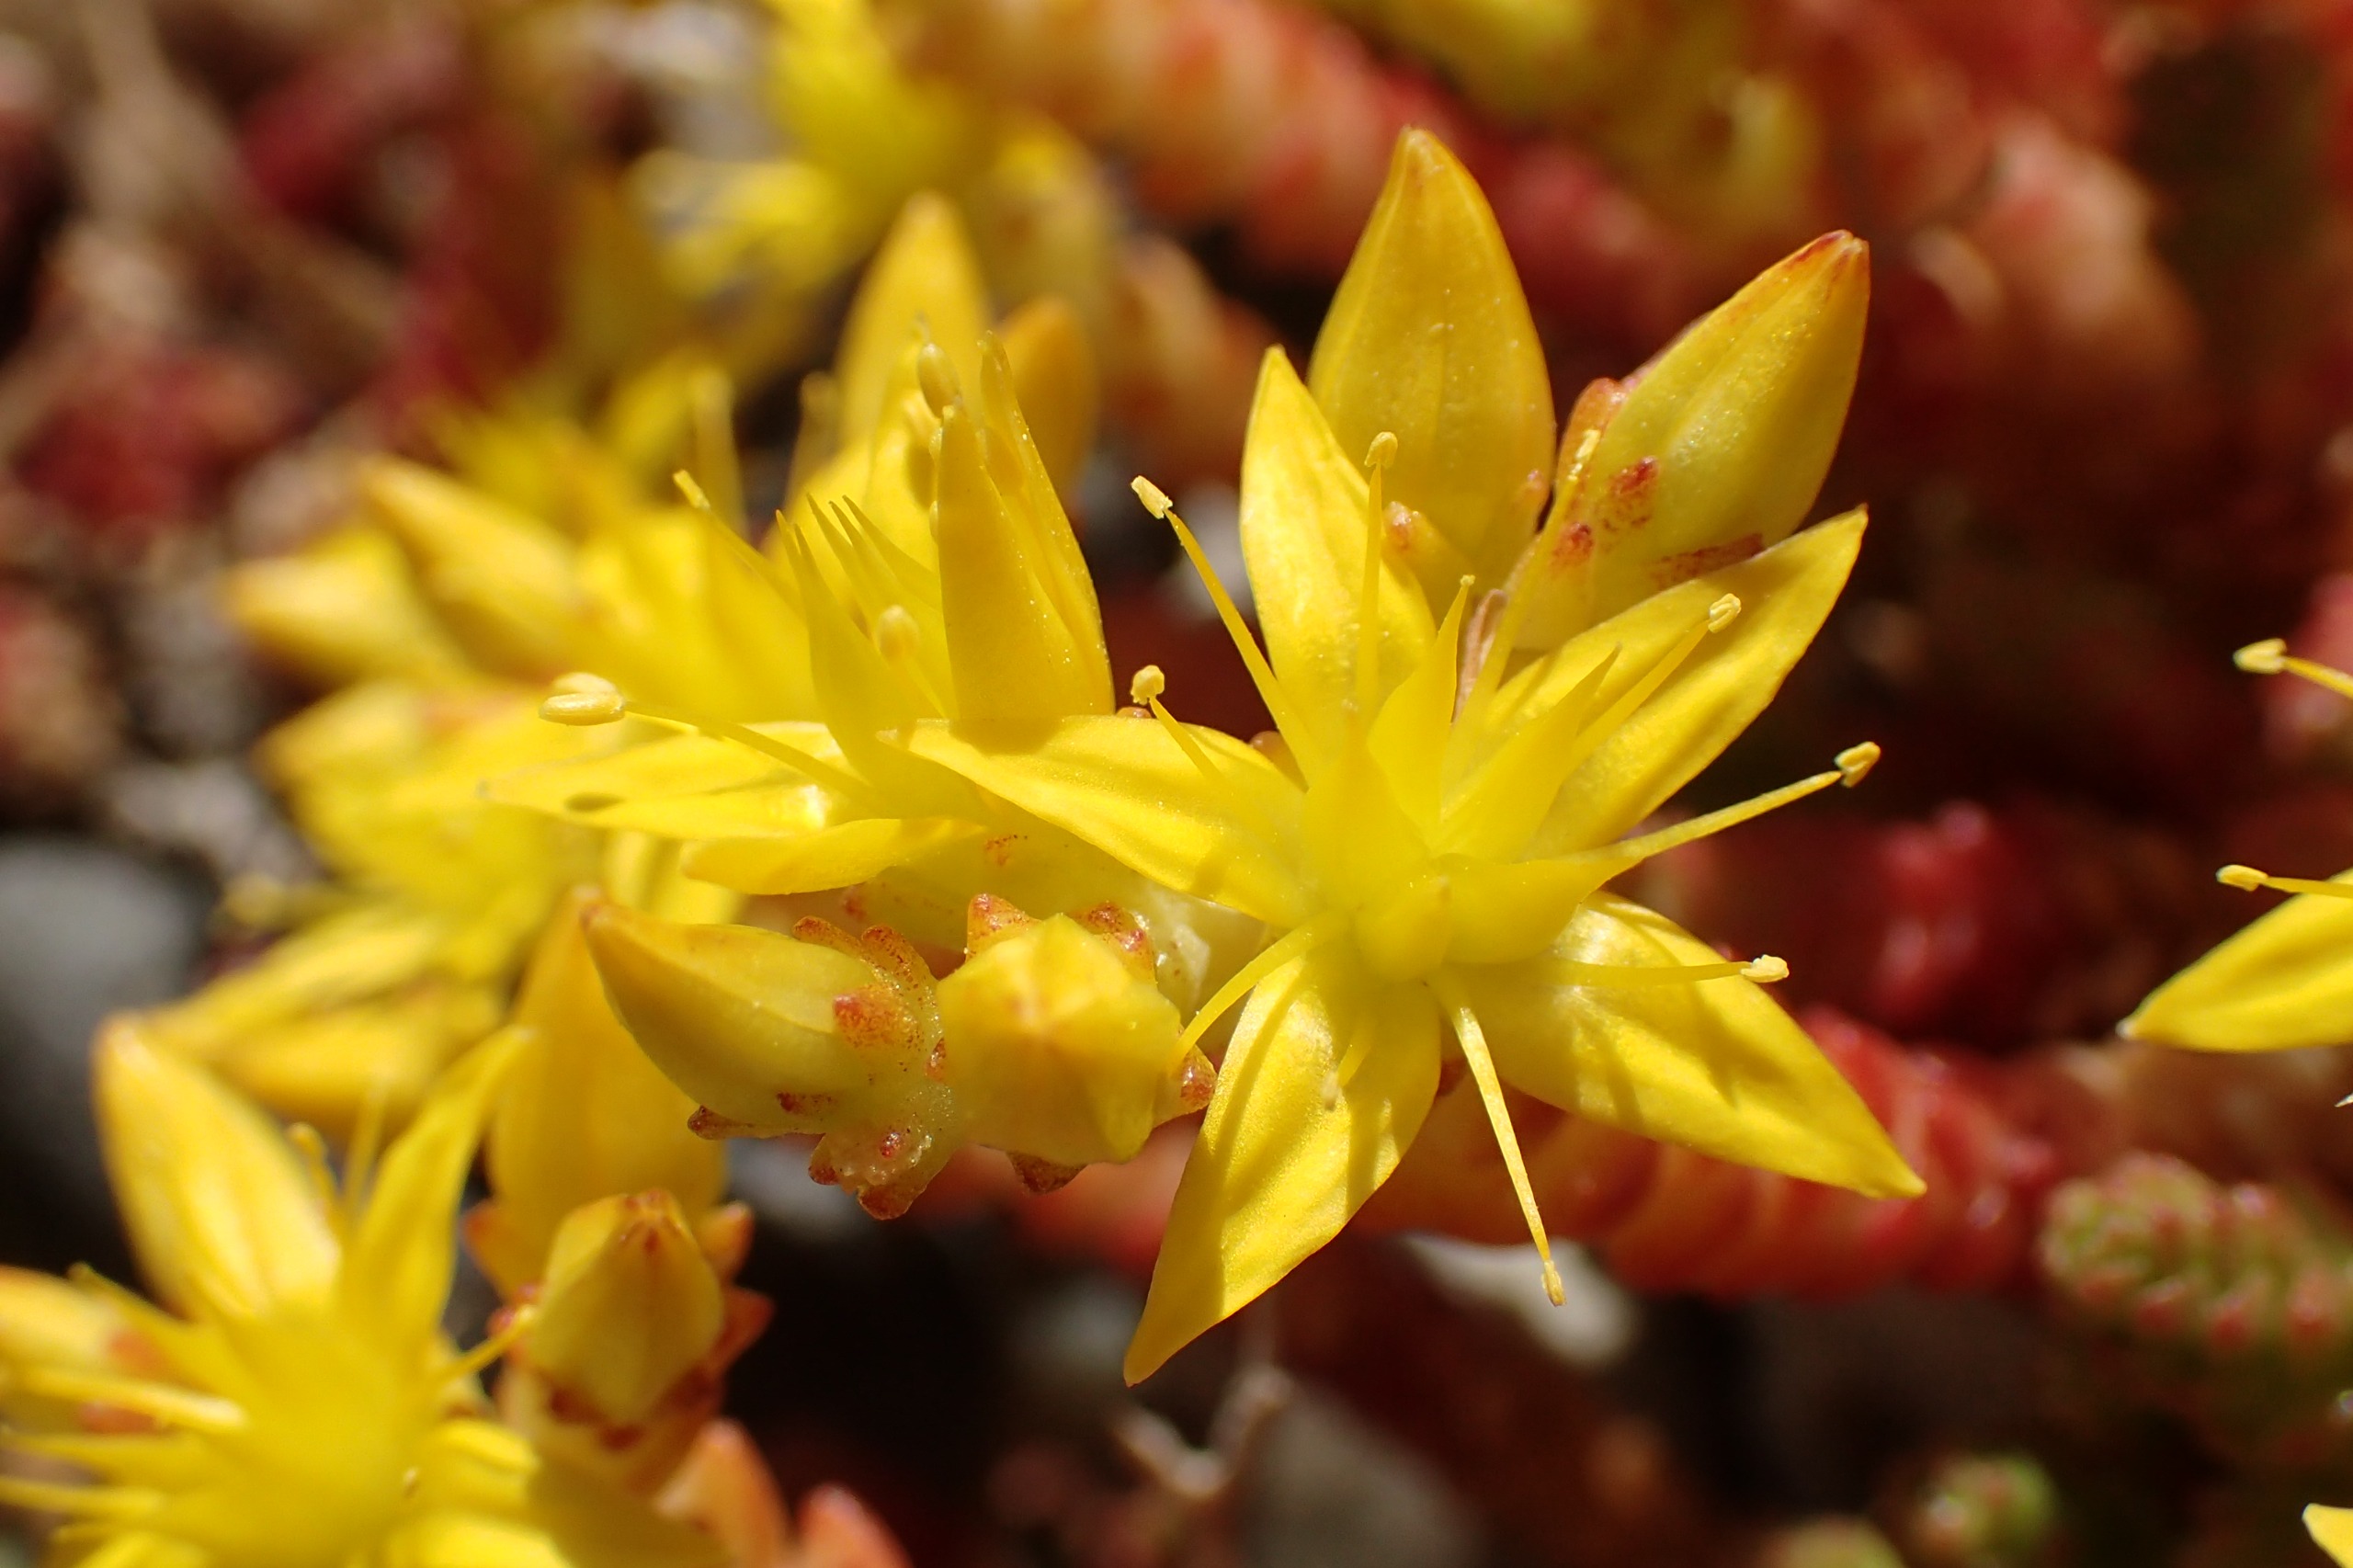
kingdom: Plantae
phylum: Tracheophyta
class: Magnoliopsida
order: Saxifragales
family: Crassulaceae
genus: Sedum
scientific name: Sedum acre
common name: Bidende stenurt
